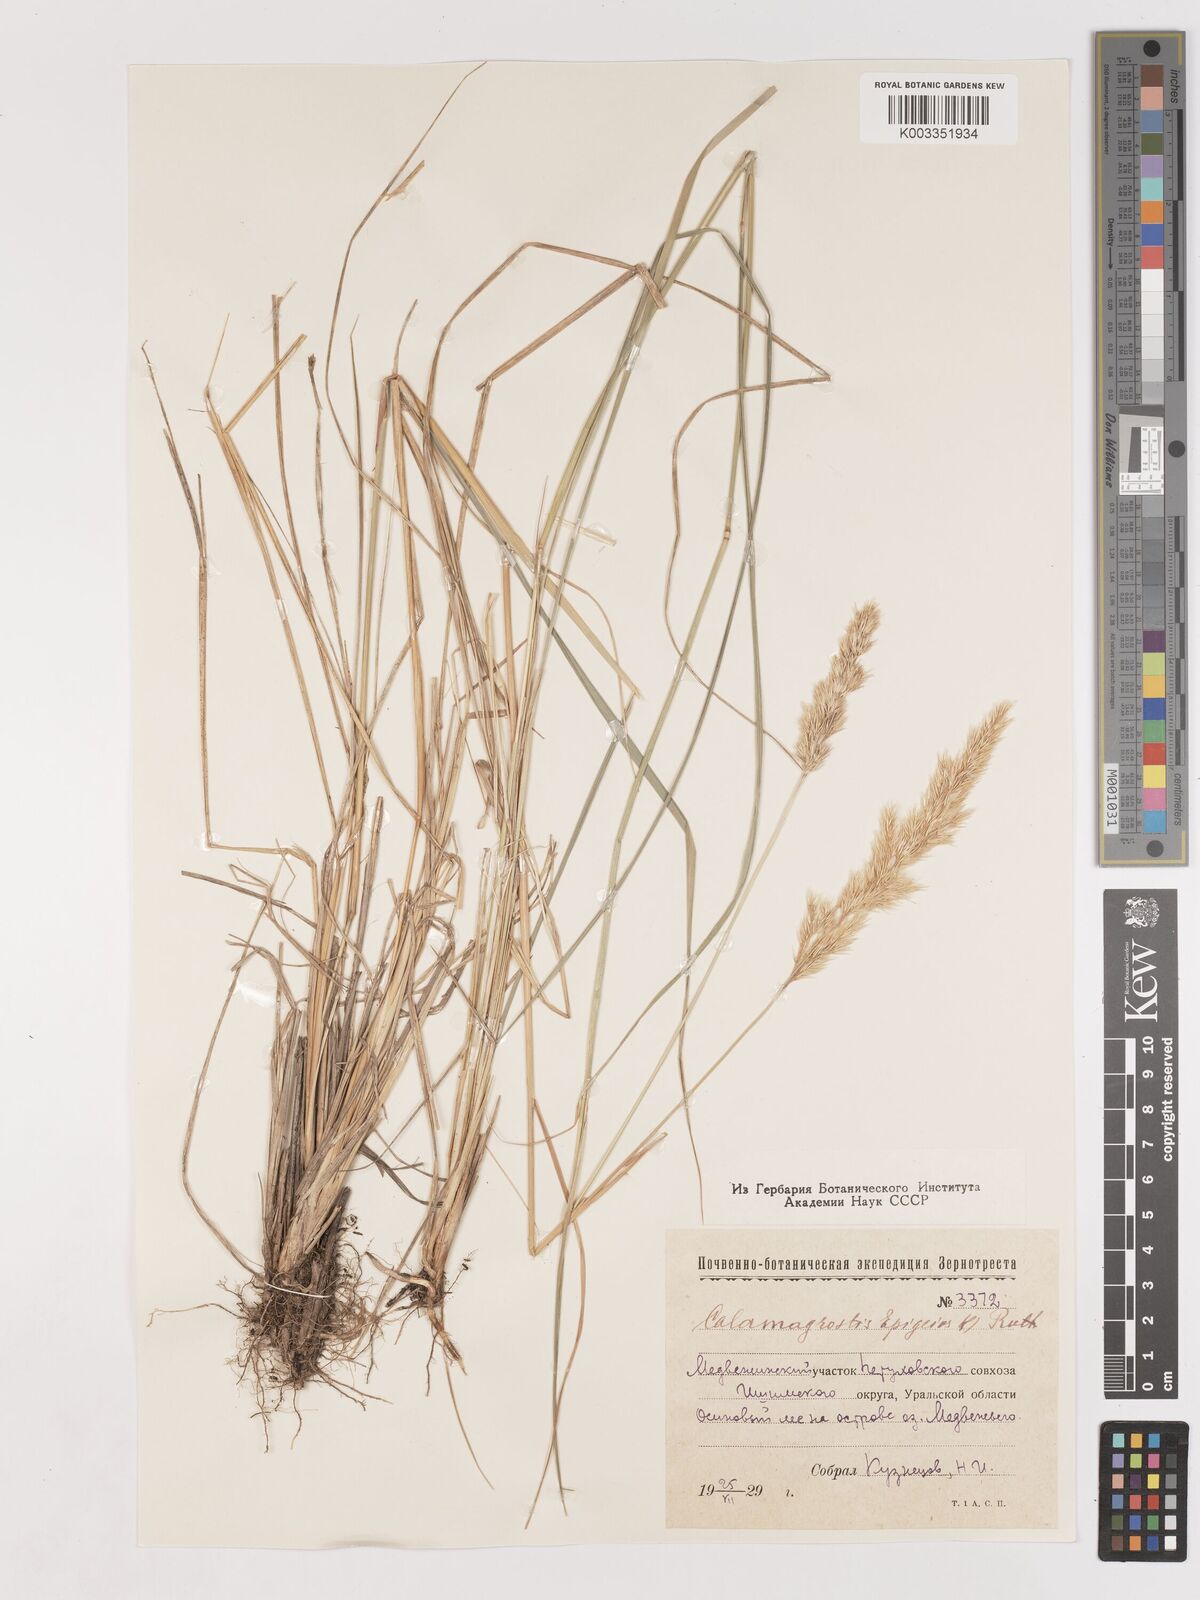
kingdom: Plantae
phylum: Tracheophyta
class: Liliopsida
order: Poales
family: Poaceae
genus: Calamagrostis
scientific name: Calamagrostis epigejos
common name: Wood small-reed
